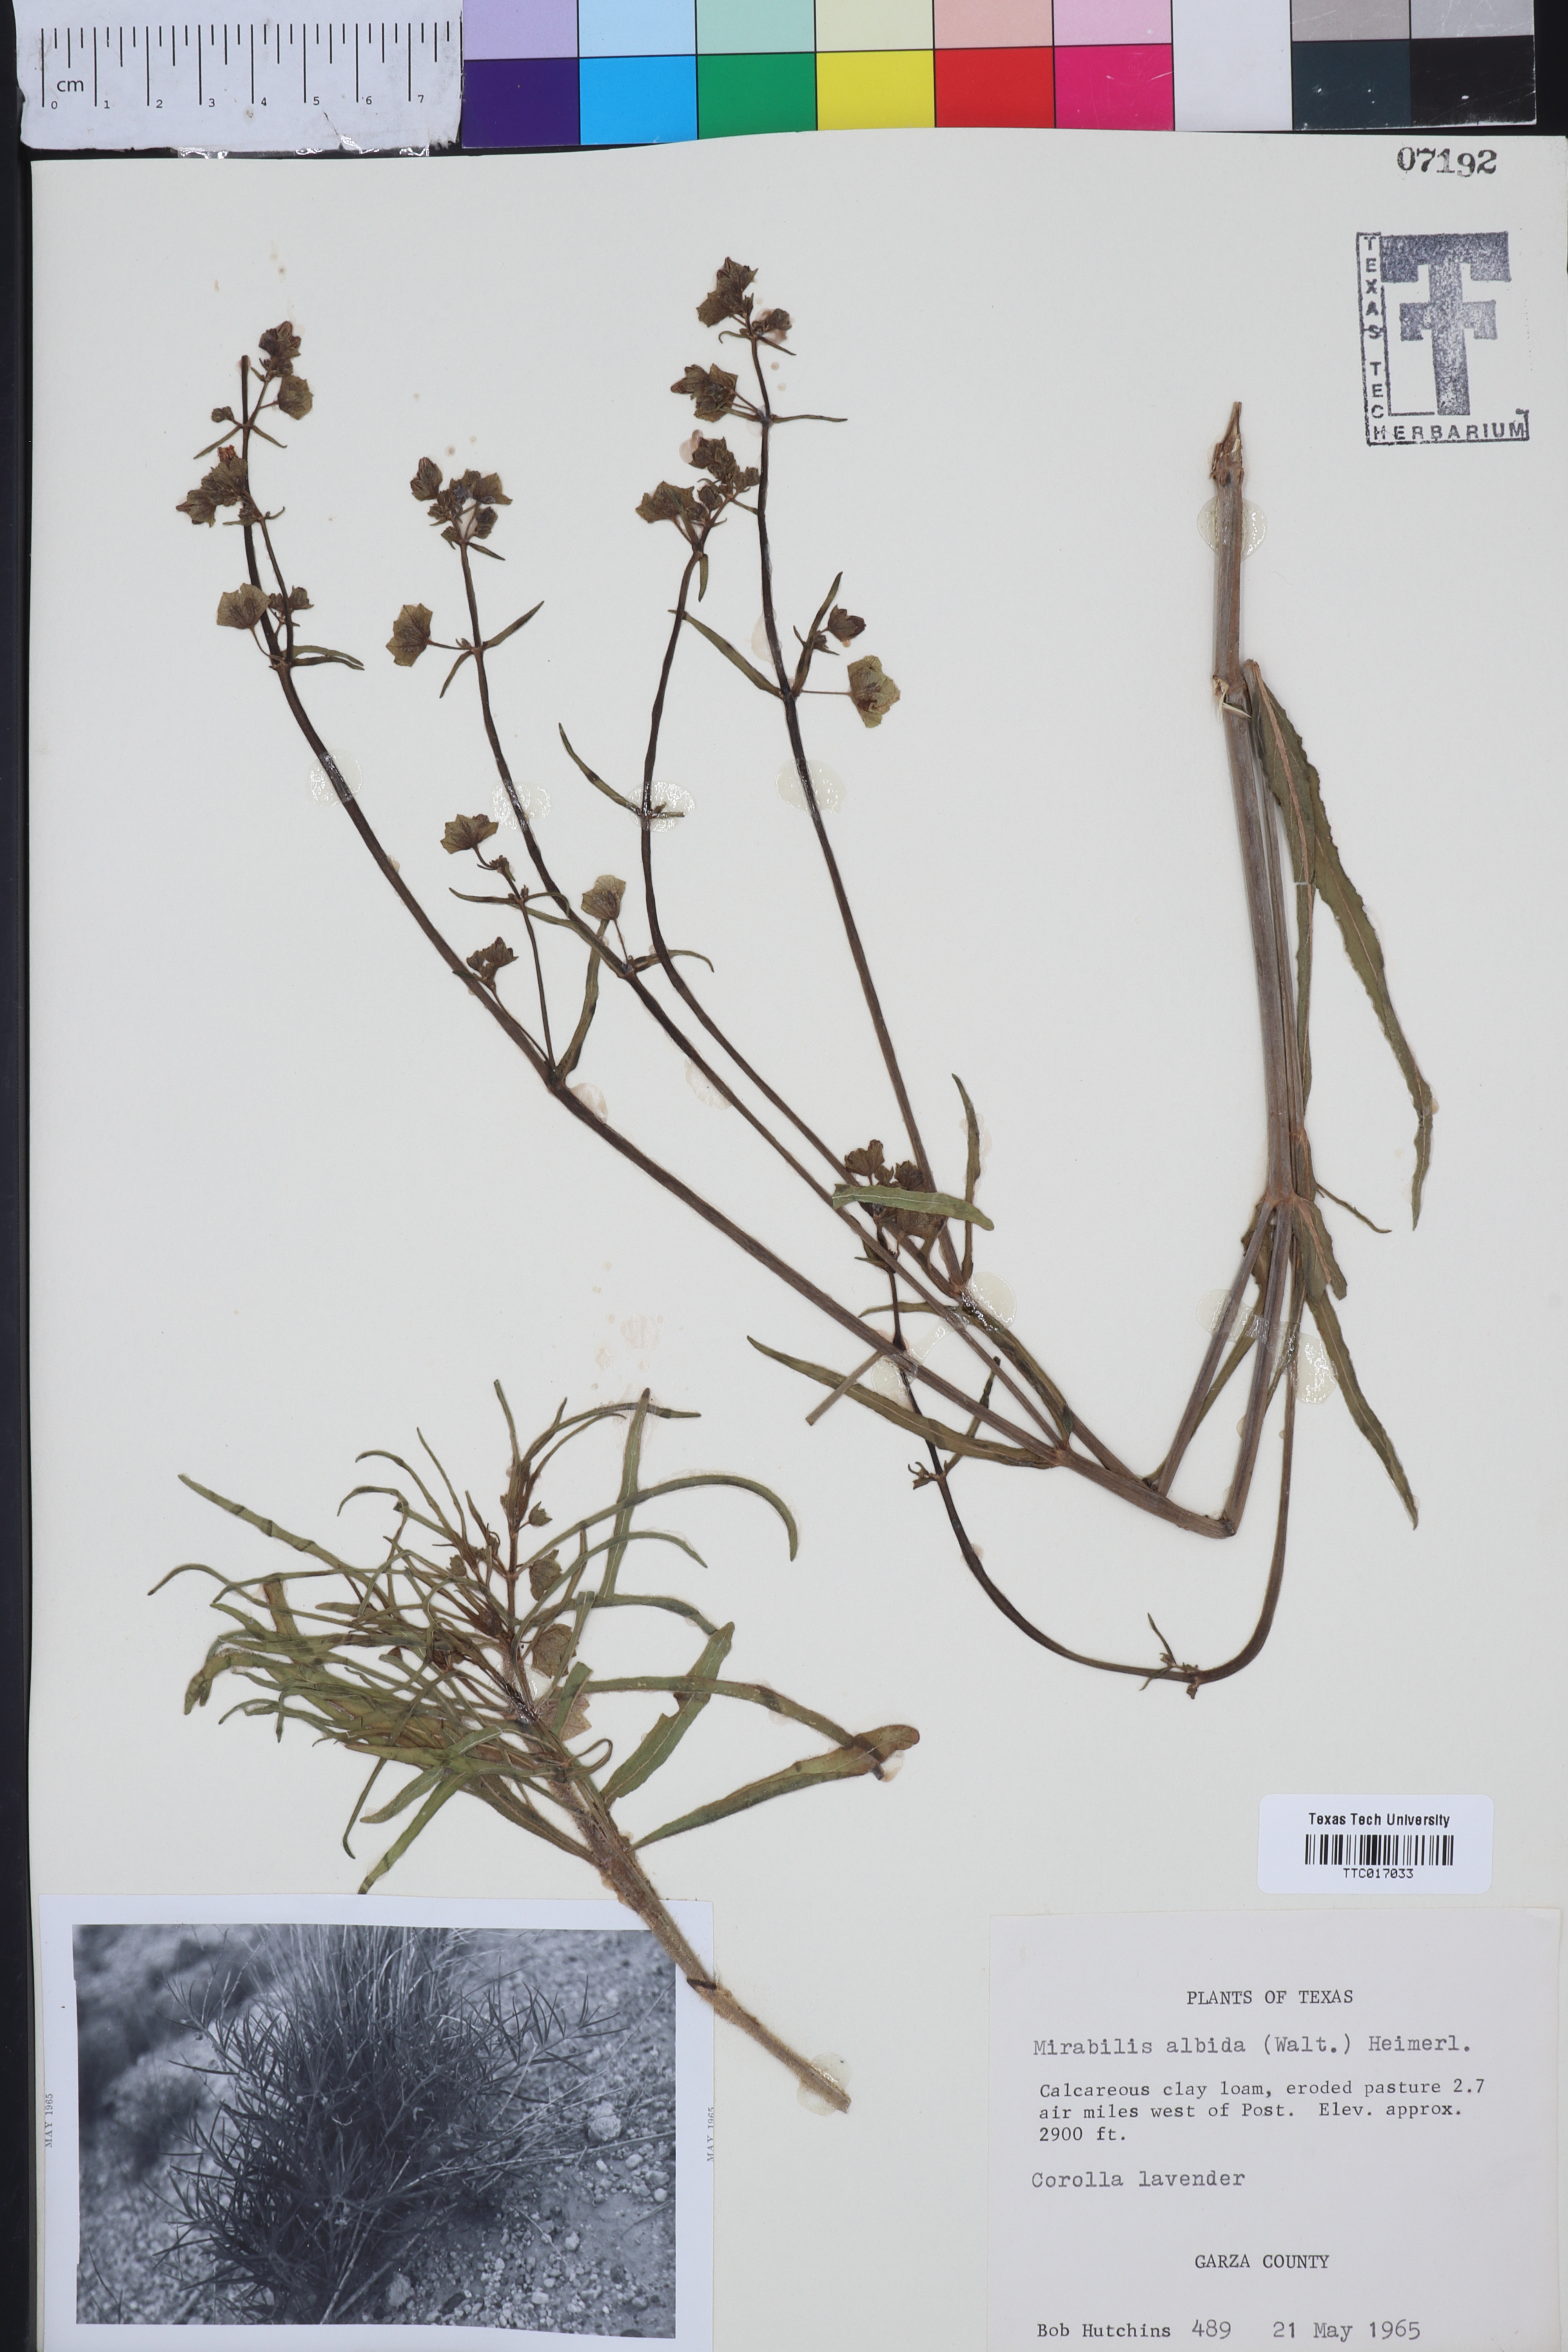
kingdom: Plantae
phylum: Tracheophyta
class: Magnoliopsida
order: Caryophyllales
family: Nyctaginaceae
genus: Mirabilis
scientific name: Mirabilis albida
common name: Hairy four-o'clock
